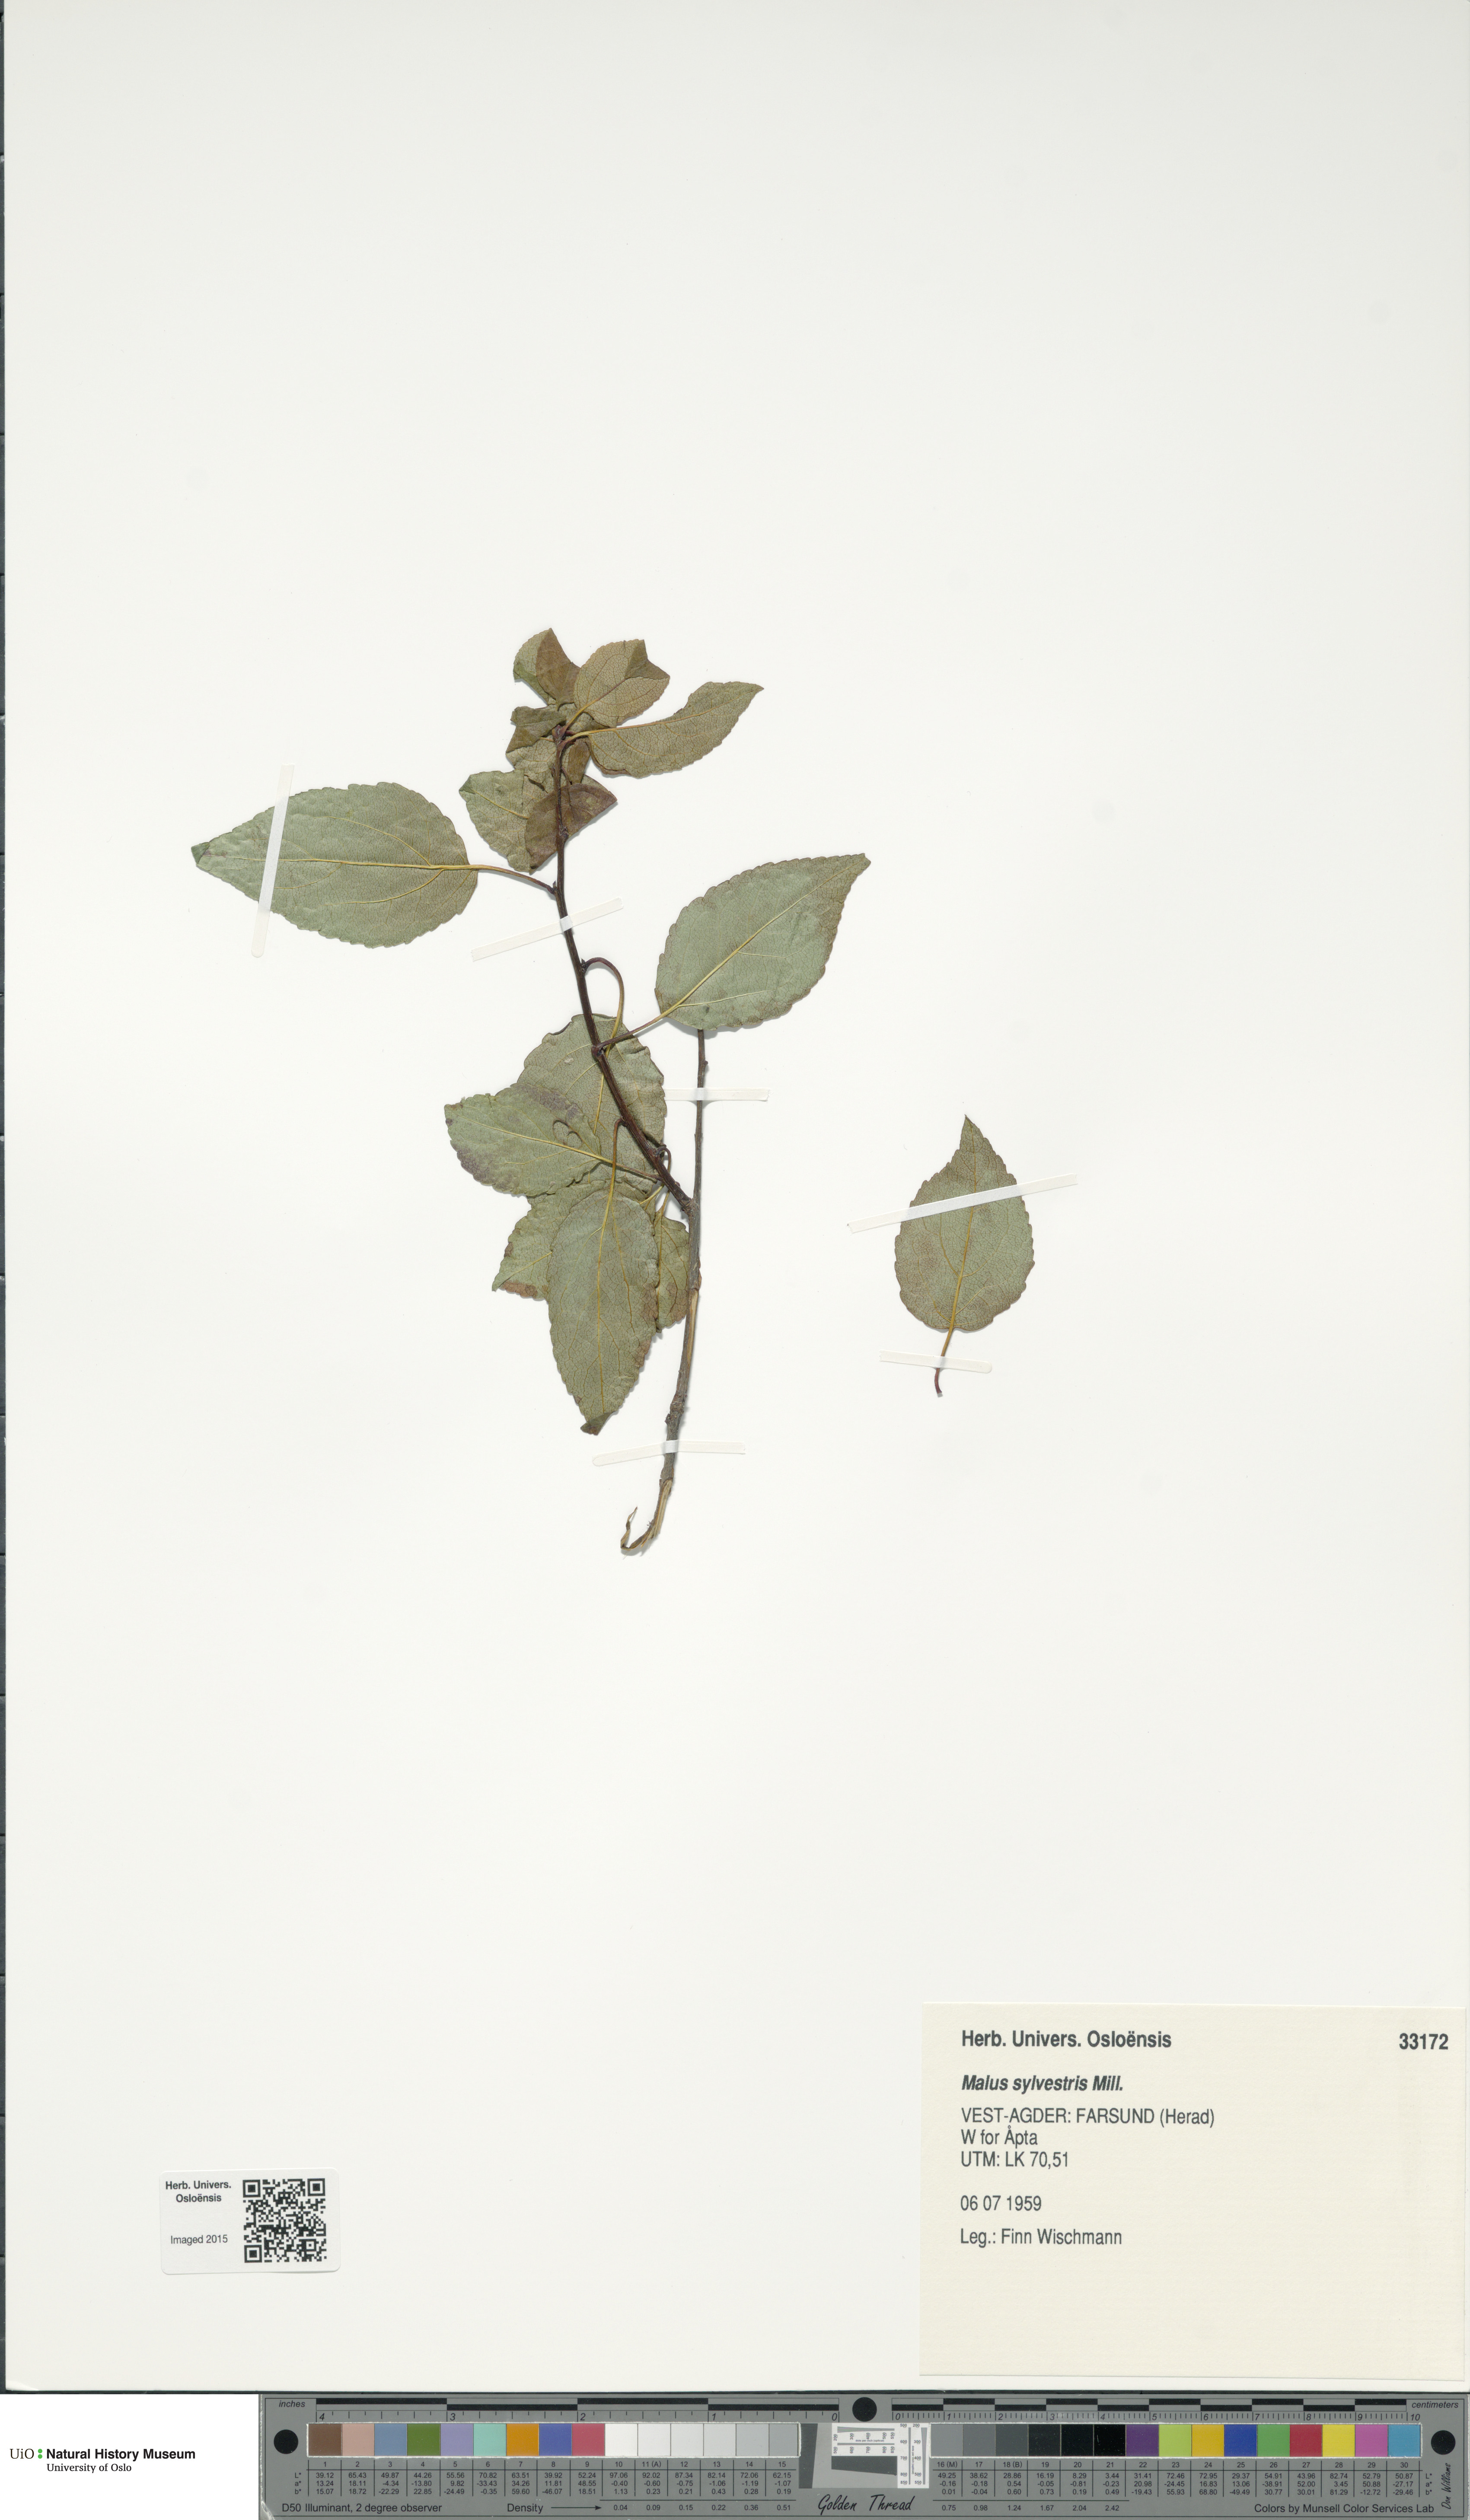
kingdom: Plantae
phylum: Tracheophyta
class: Magnoliopsida
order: Rosales
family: Rosaceae
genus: Malus
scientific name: Malus sylvestris
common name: Crab apple
